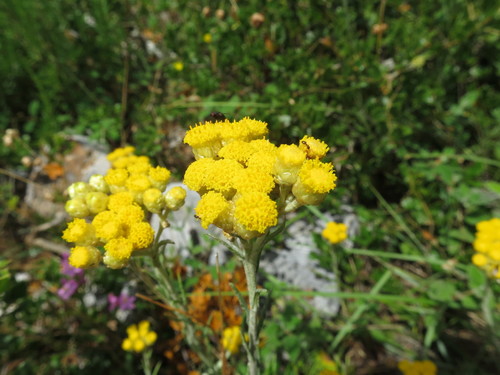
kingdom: Plantae
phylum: Tracheophyta
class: Magnoliopsida
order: Asterales
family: Asteraceae
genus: Helichrysum
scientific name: Helichrysum stoechas
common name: Goldilocks
